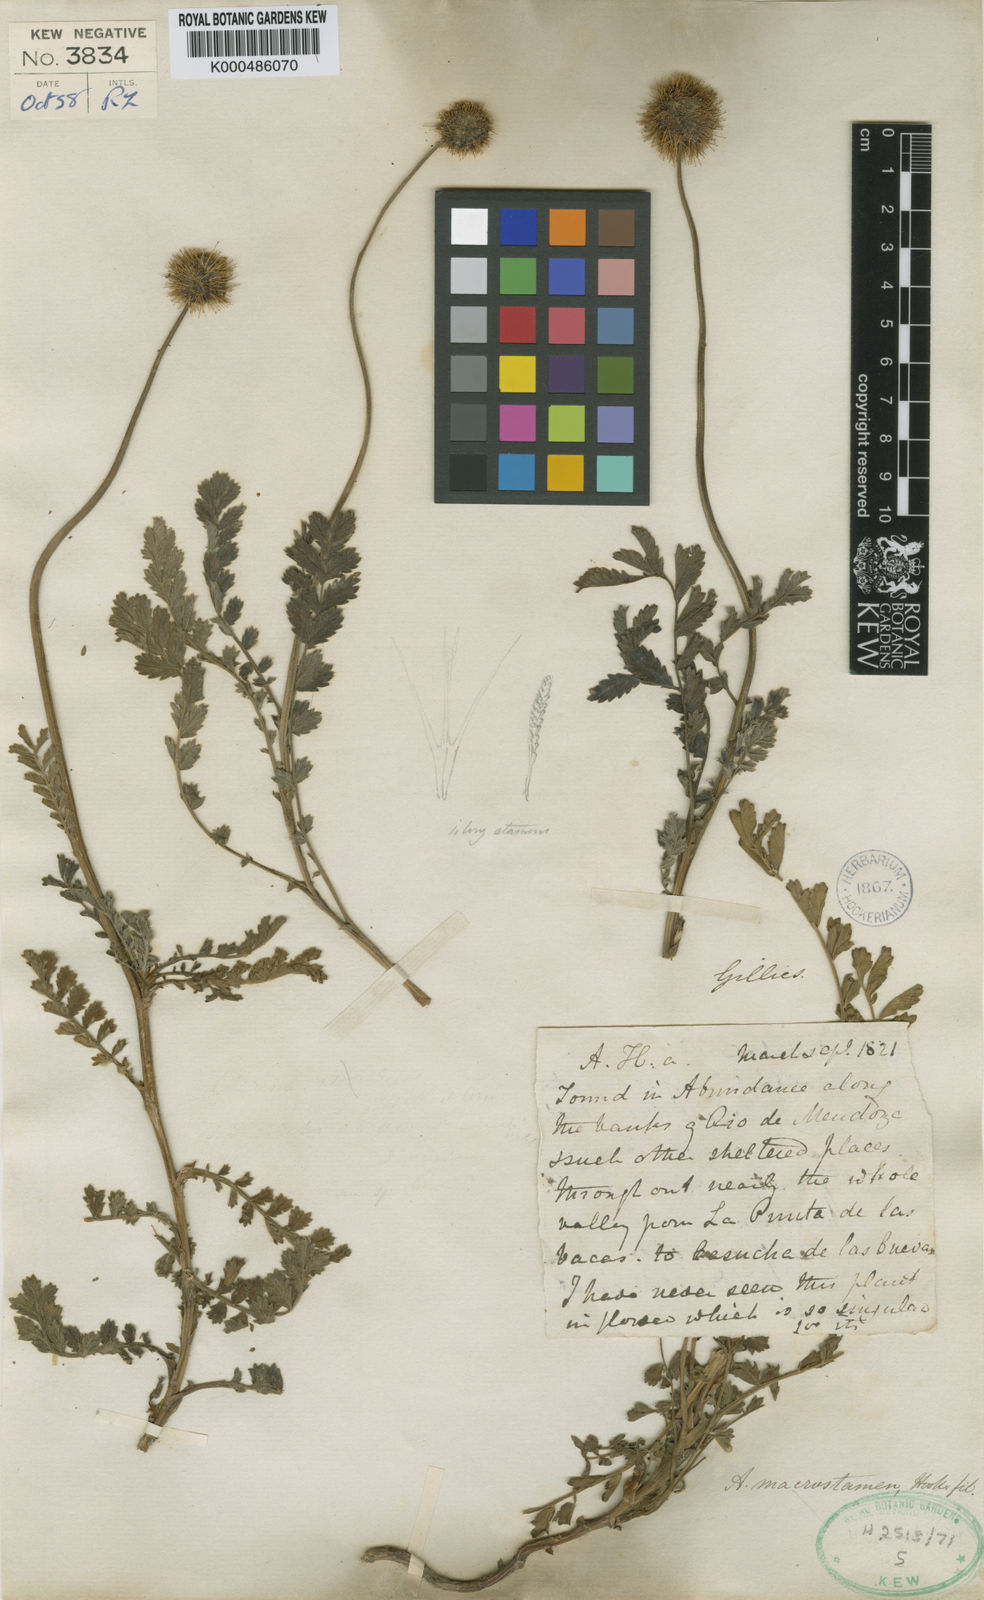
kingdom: Plantae
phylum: Tracheophyta
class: Magnoliopsida
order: Rosales
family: Rosaceae
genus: Acaena
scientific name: Acaena magellanica
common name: New zealand burr
